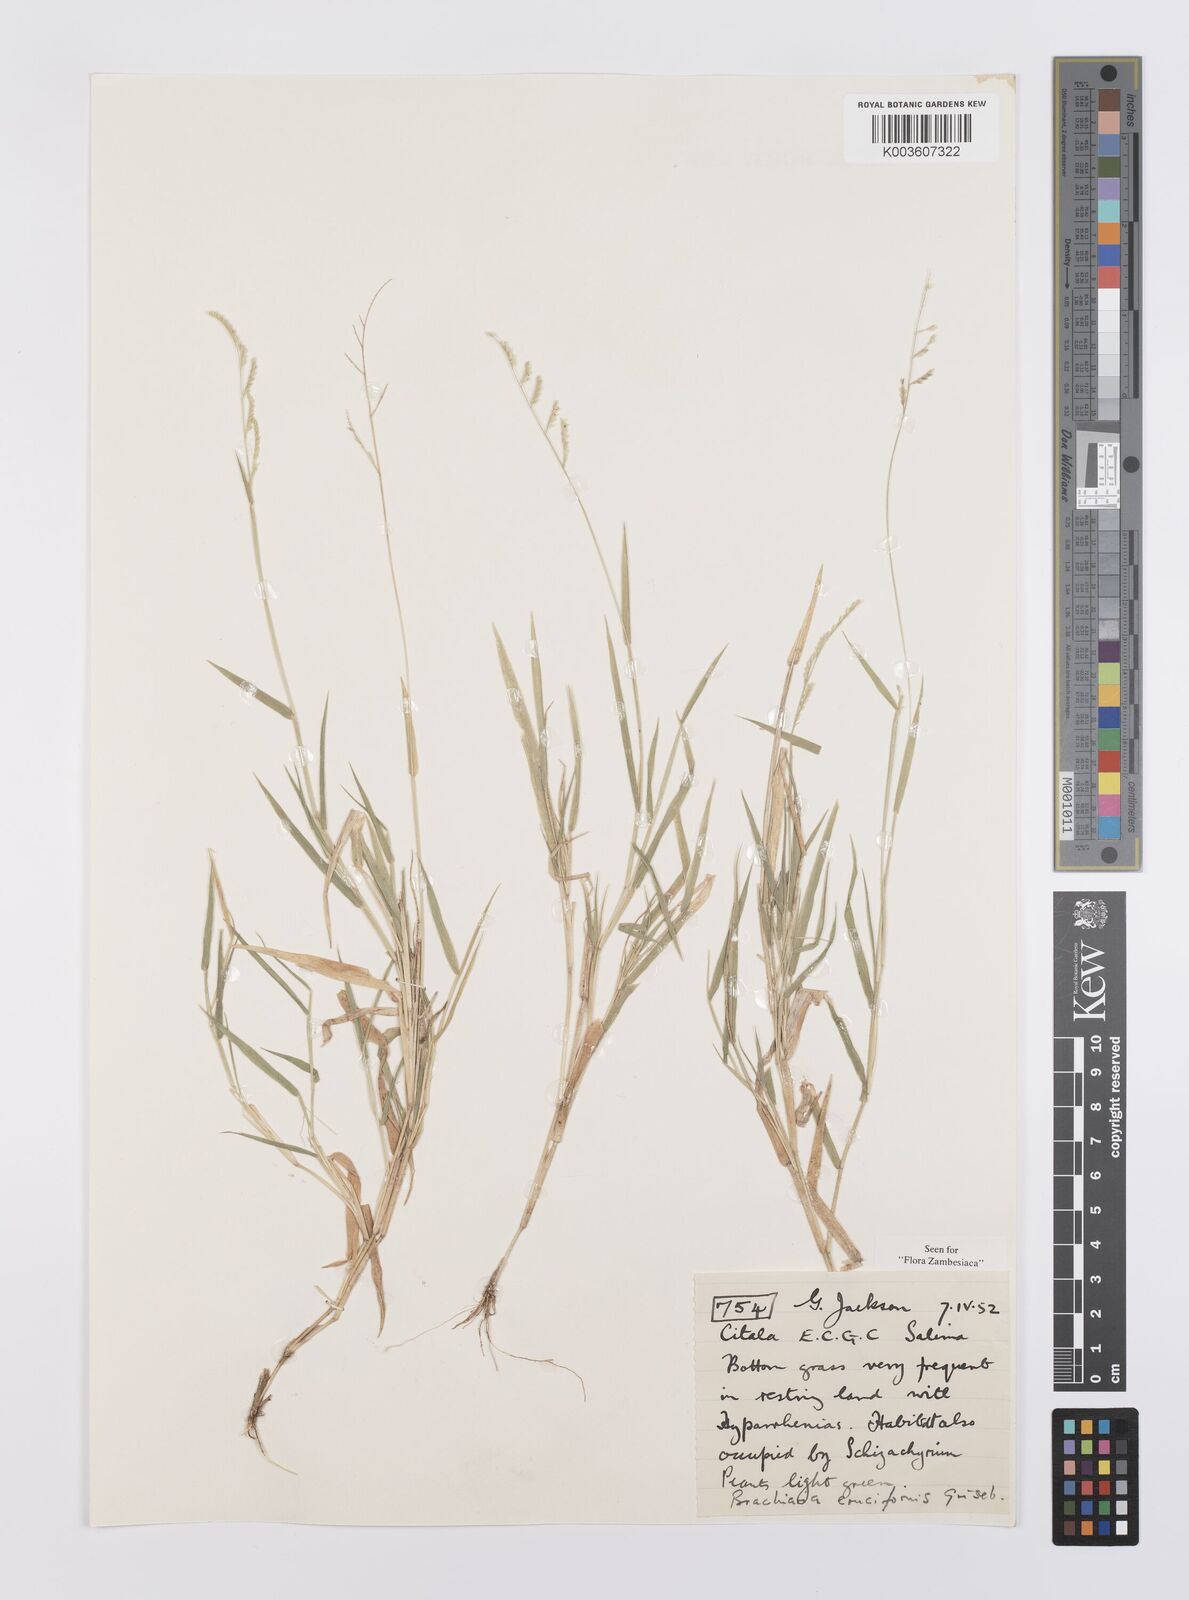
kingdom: Plantae
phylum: Tracheophyta
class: Liliopsida
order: Poales
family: Poaceae
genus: Moorochloa
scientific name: Moorochloa eruciformis
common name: Sweet signalgrass
